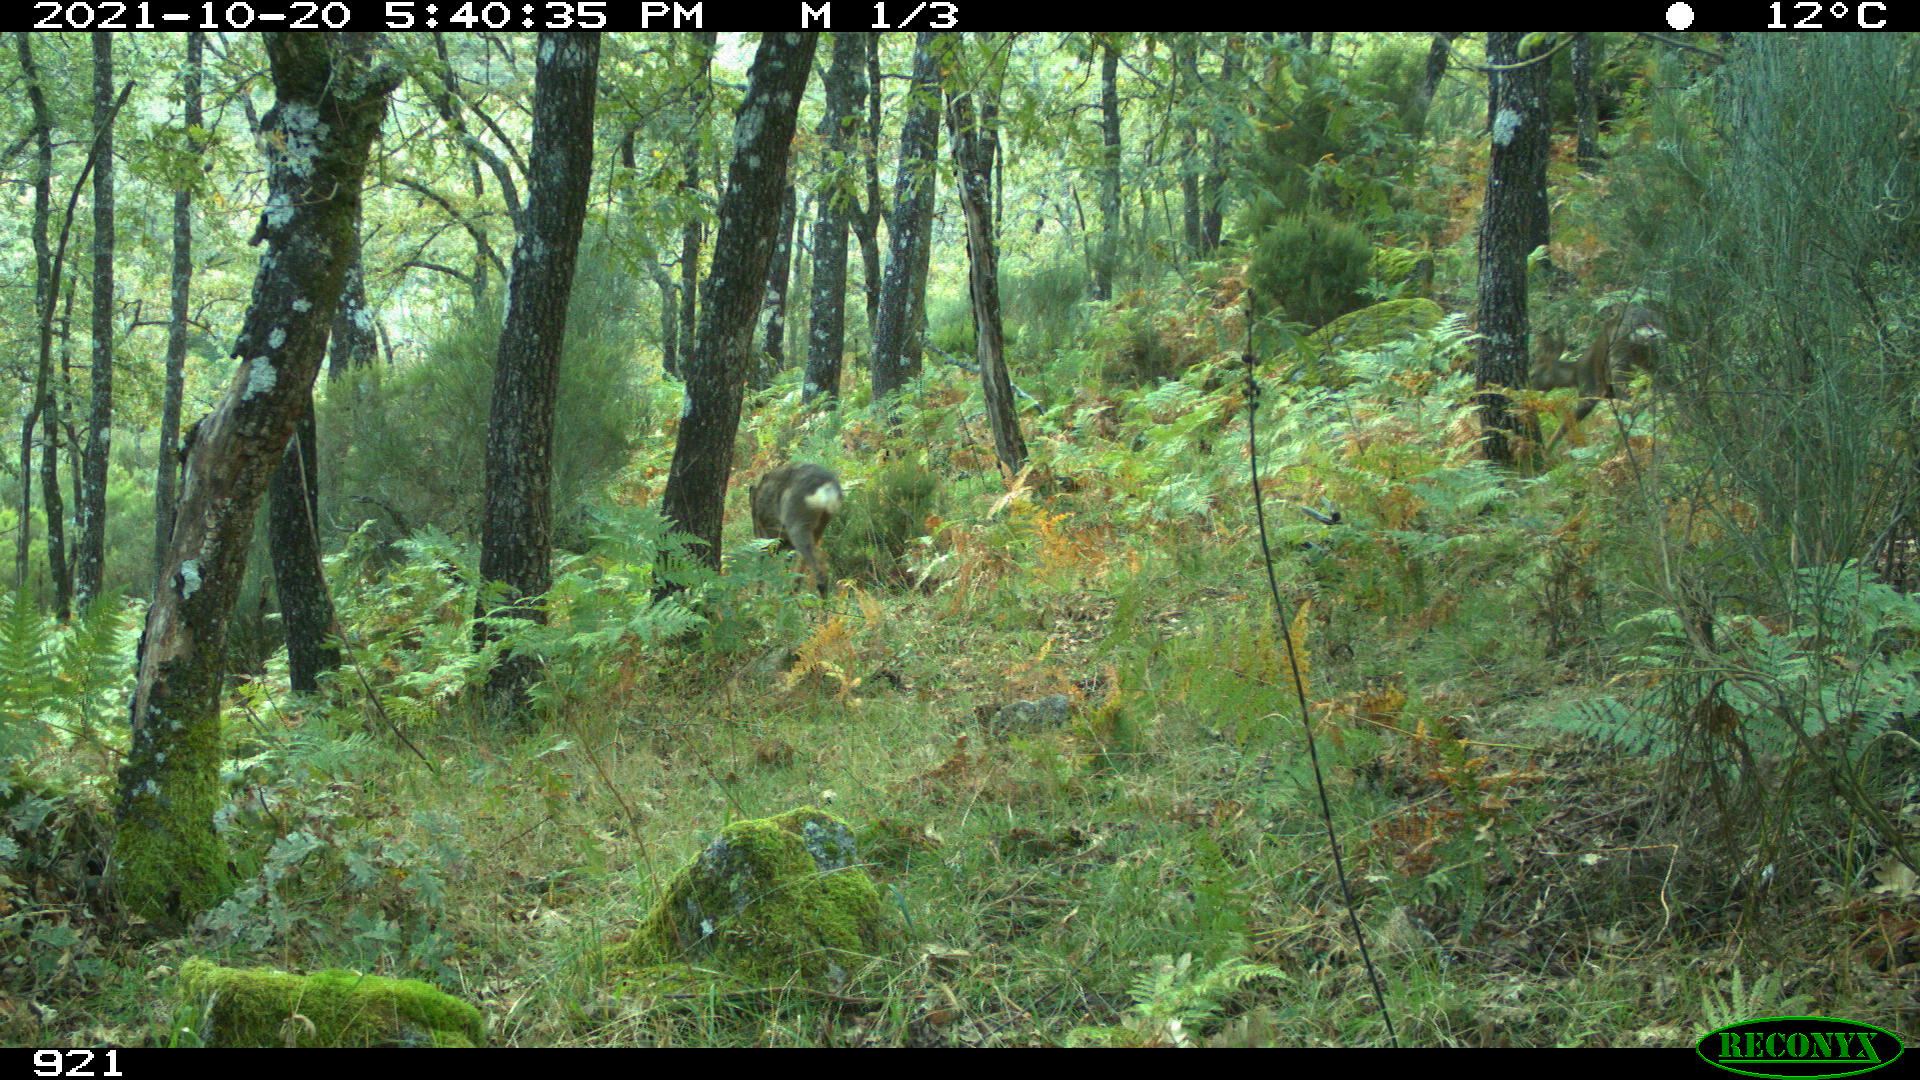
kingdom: Animalia
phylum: Chordata
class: Mammalia
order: Artiodactyla
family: Cervidae
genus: Capreolus
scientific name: Capreolus capreolus
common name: Western roe deer
